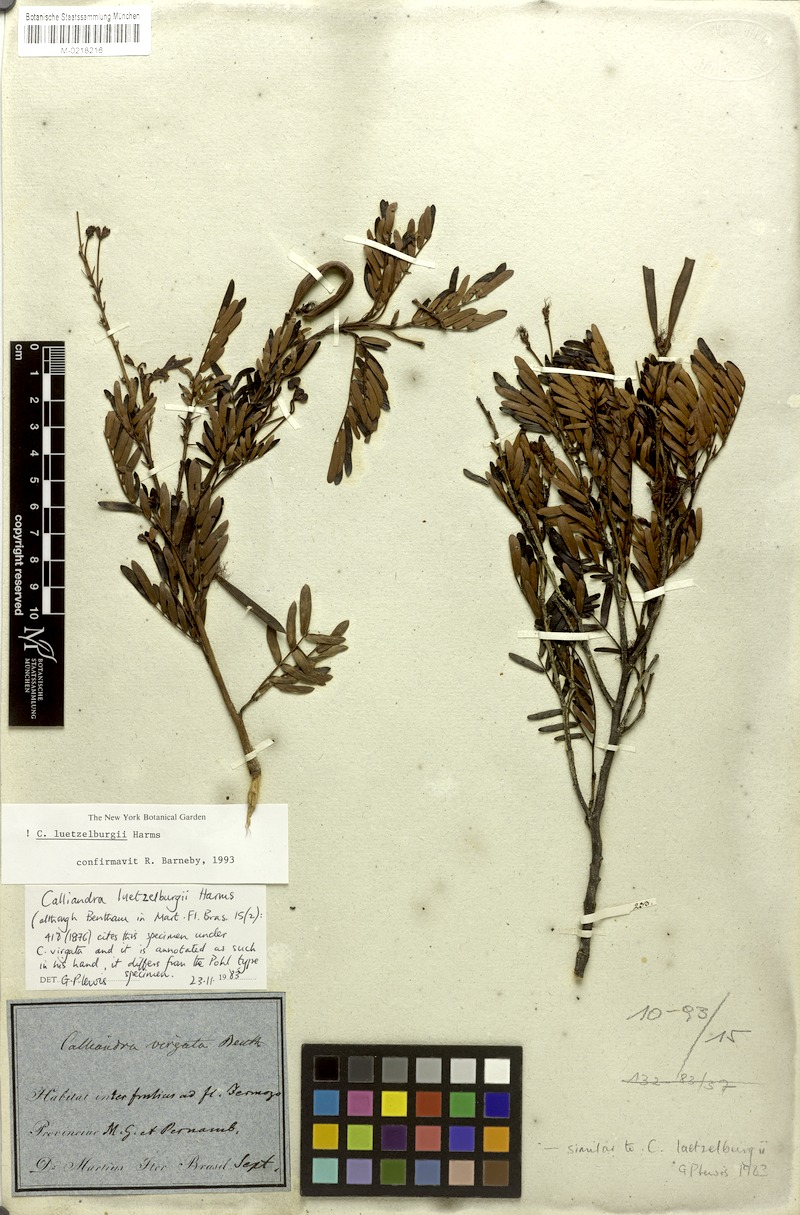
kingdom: Plantae
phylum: Tracheophyta
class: Magnoliopsida
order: Fabales
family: Fabaceae
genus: Calliandra
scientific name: Calliandra luetzelburgii
